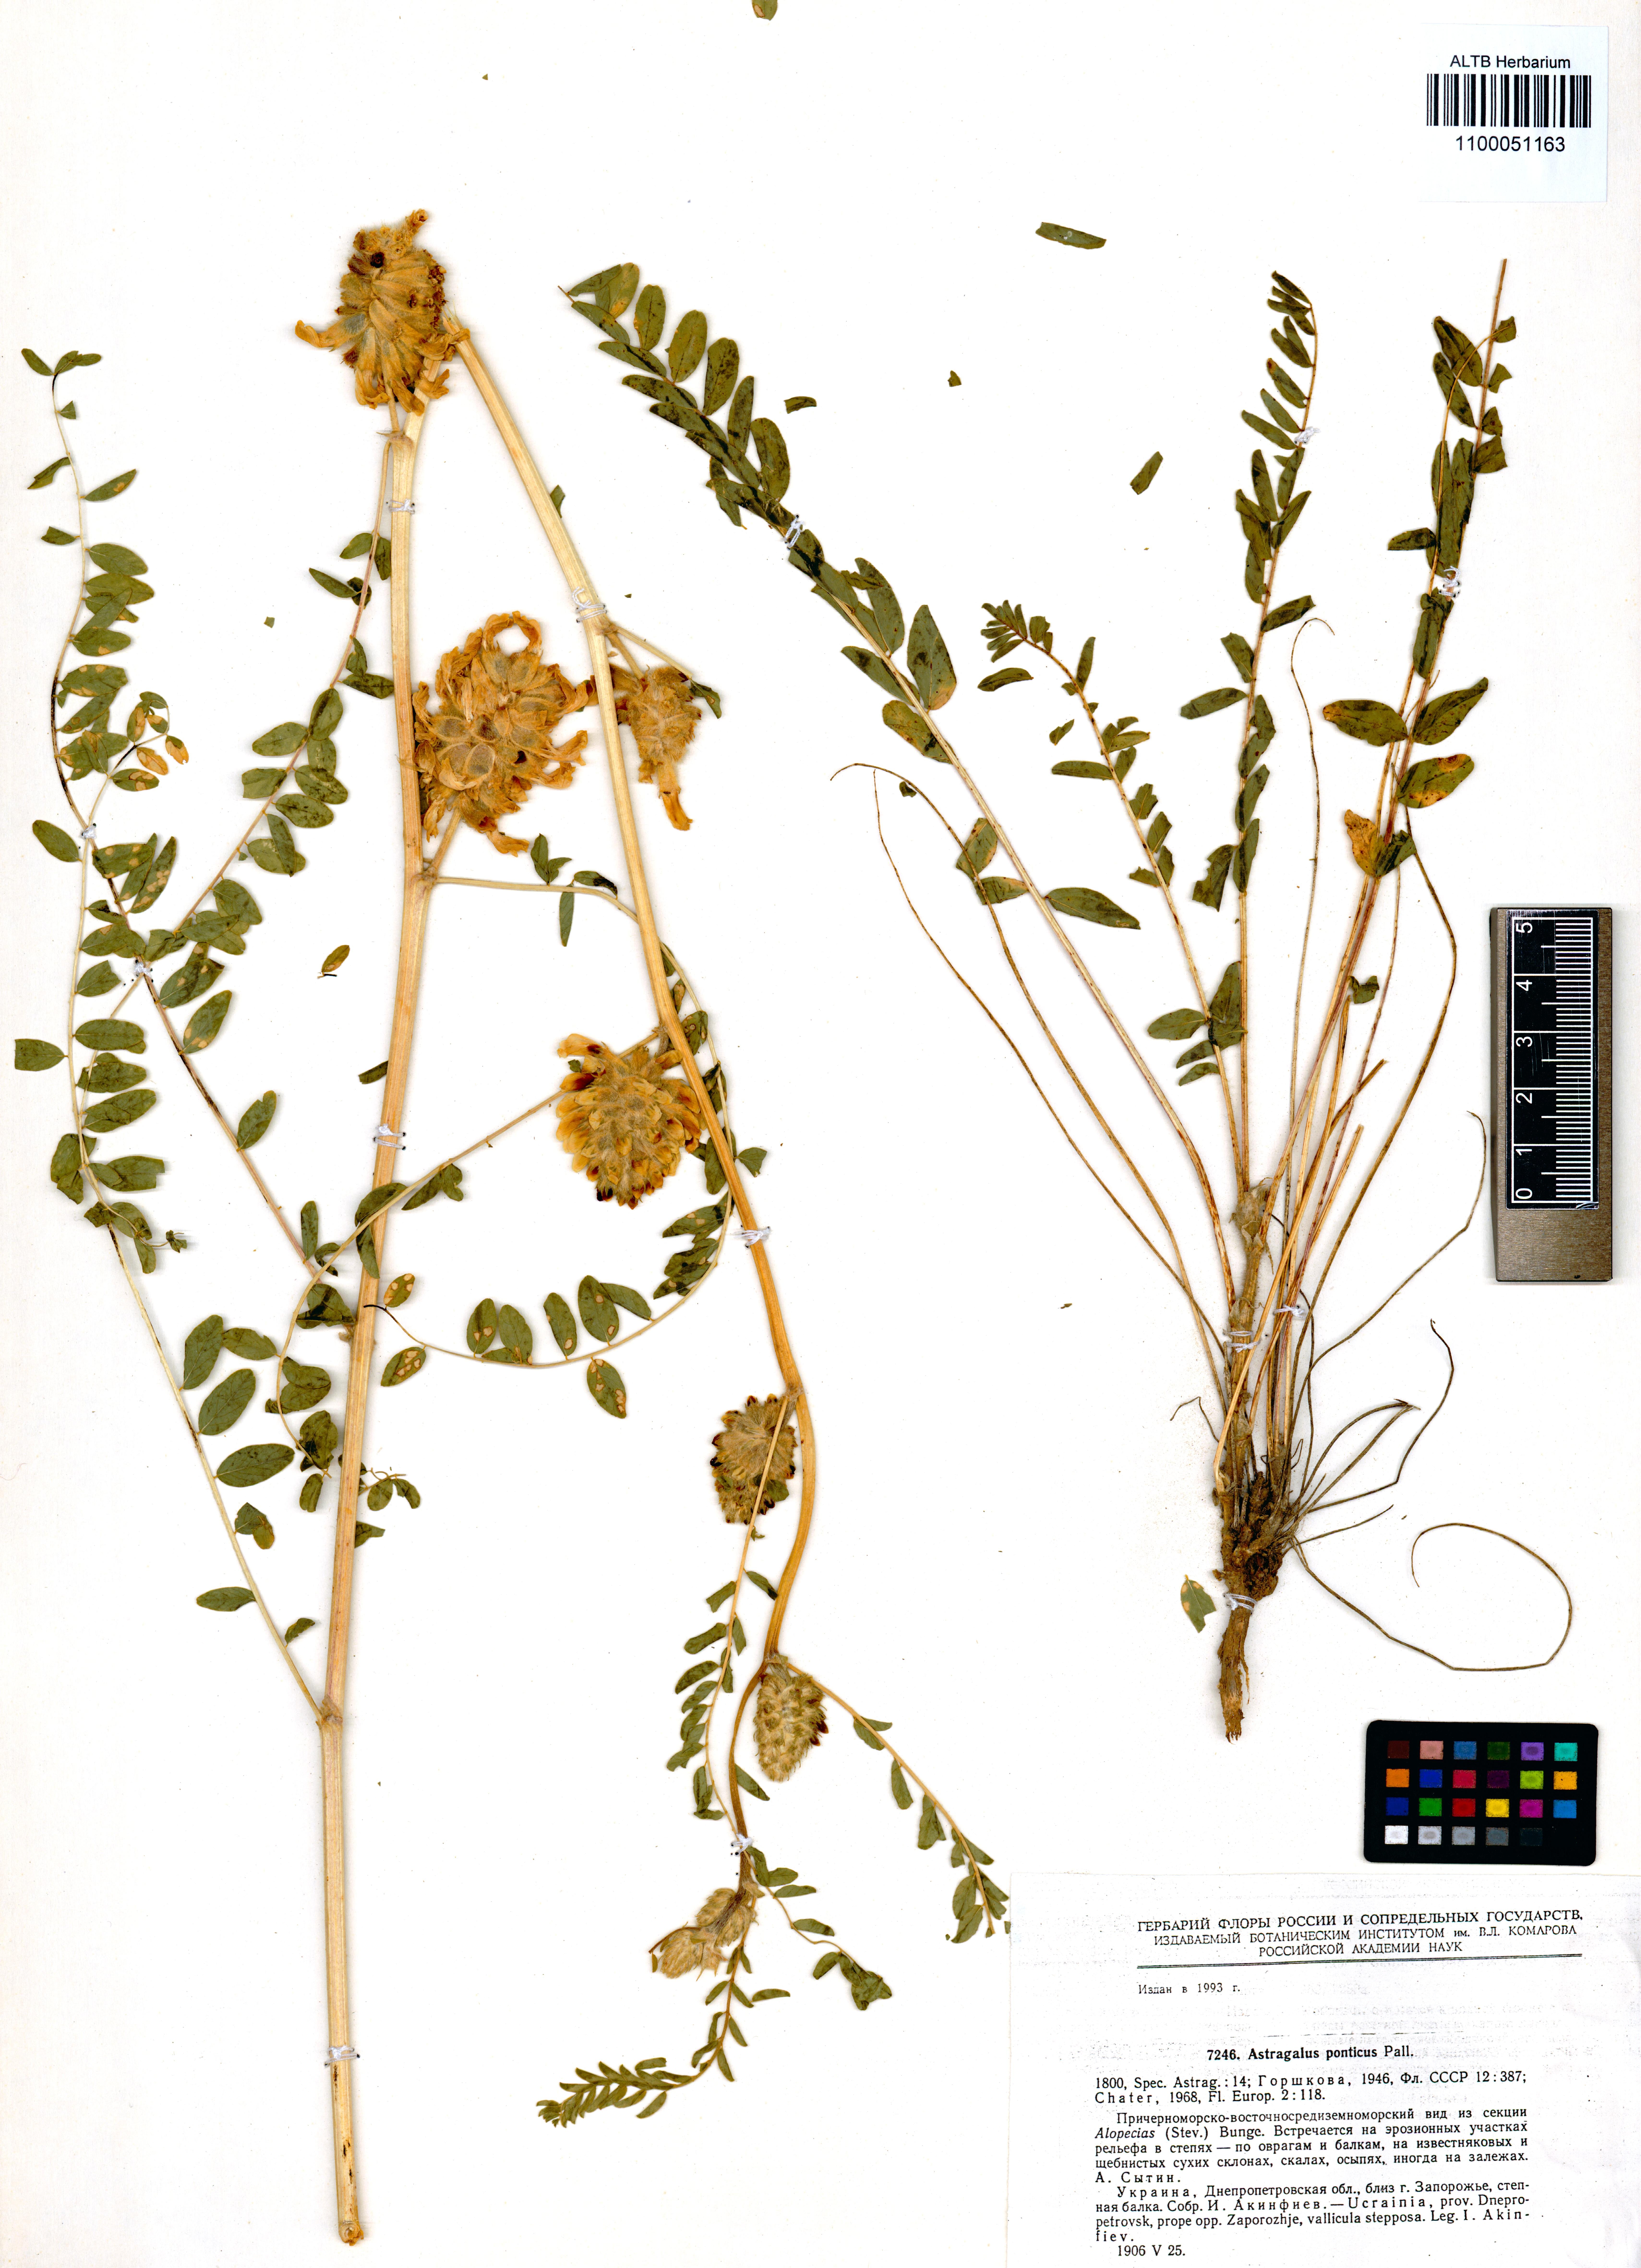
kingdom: Plantae
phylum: Tracheophyta
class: Magnoliopsida
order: Fabales
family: Fabaceae
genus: Astragalus
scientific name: Astragalus ponticus
